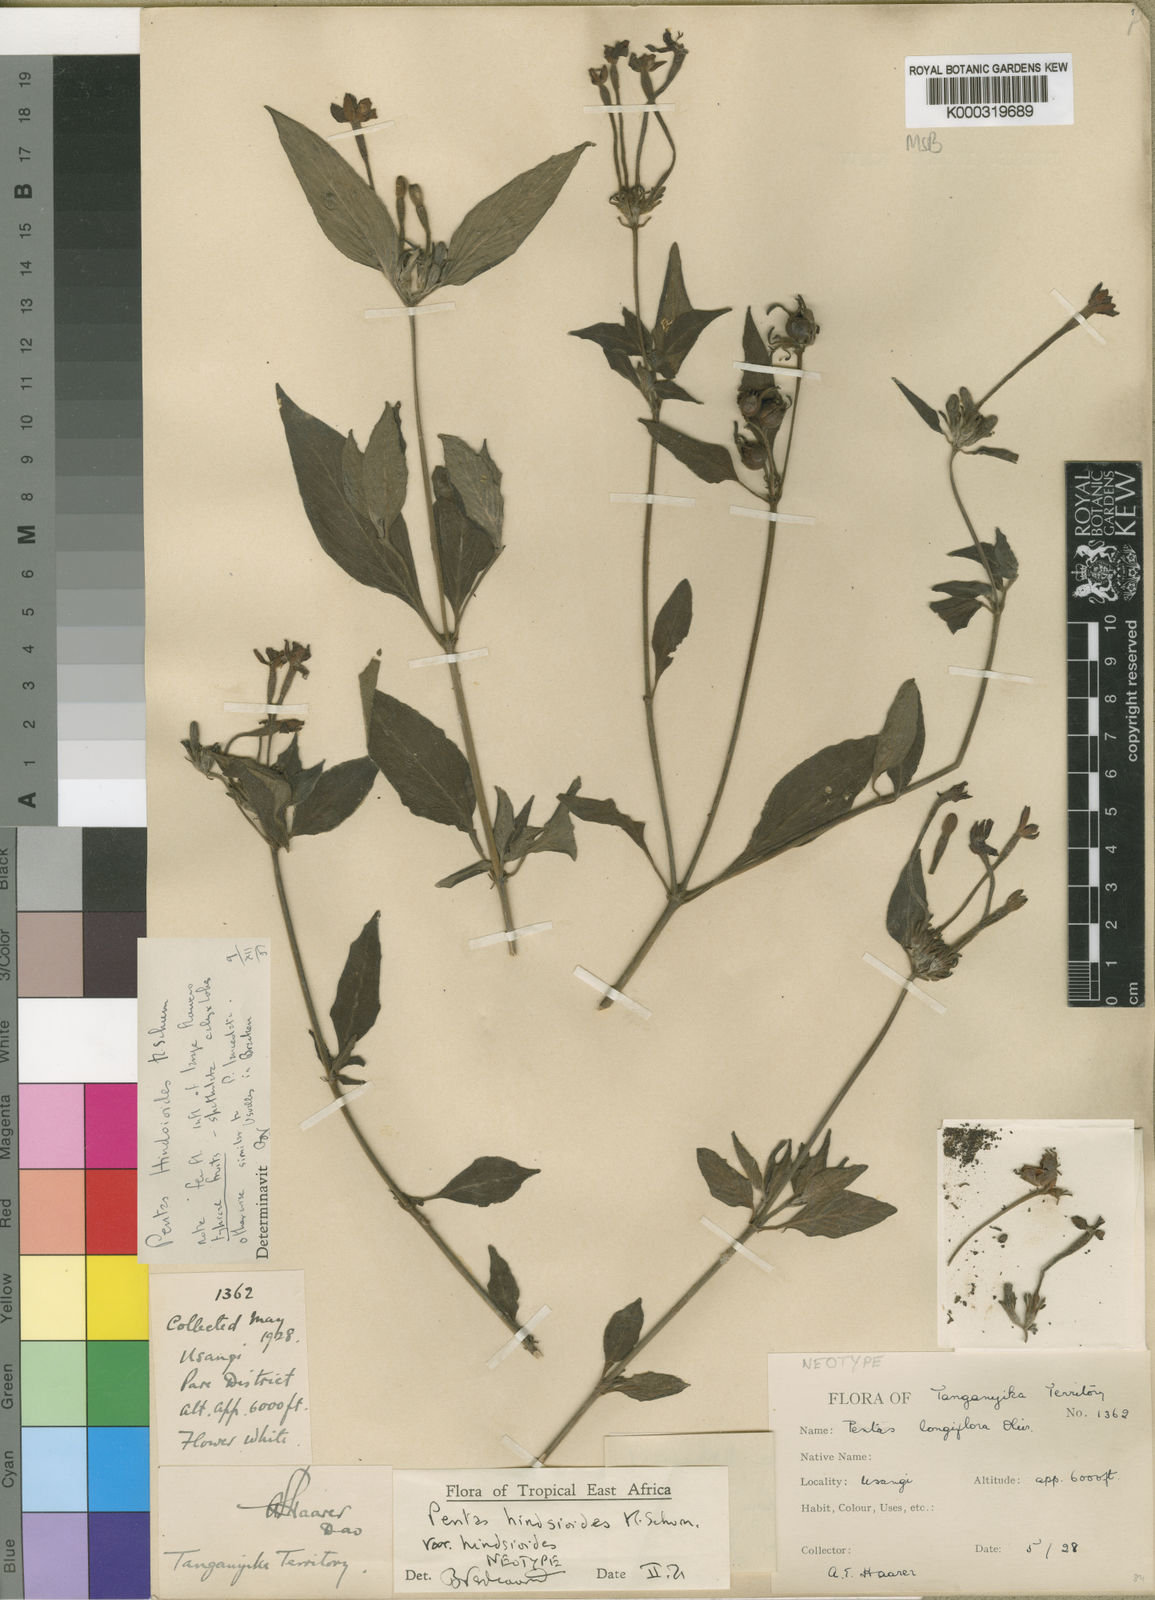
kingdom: Plantae
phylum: Tracheophyta
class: Magnoliopsida
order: Gentianales
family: Rubiaceae
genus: Chamaepentas
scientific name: Chamaepentas hindsioides
